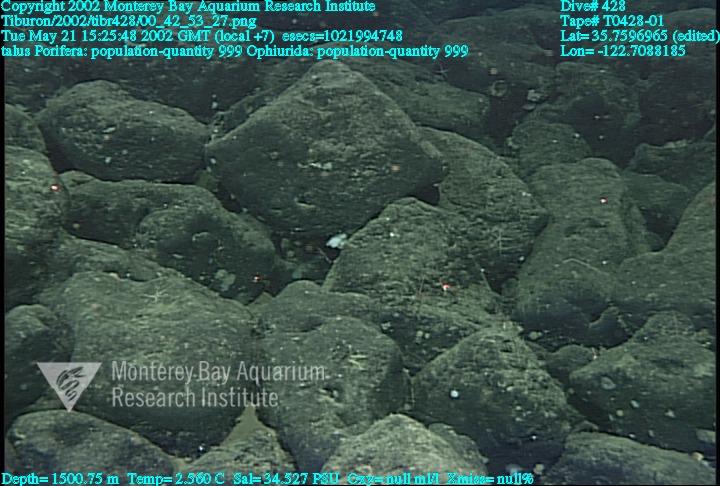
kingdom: Animalia
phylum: Porifera
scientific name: Porifera
